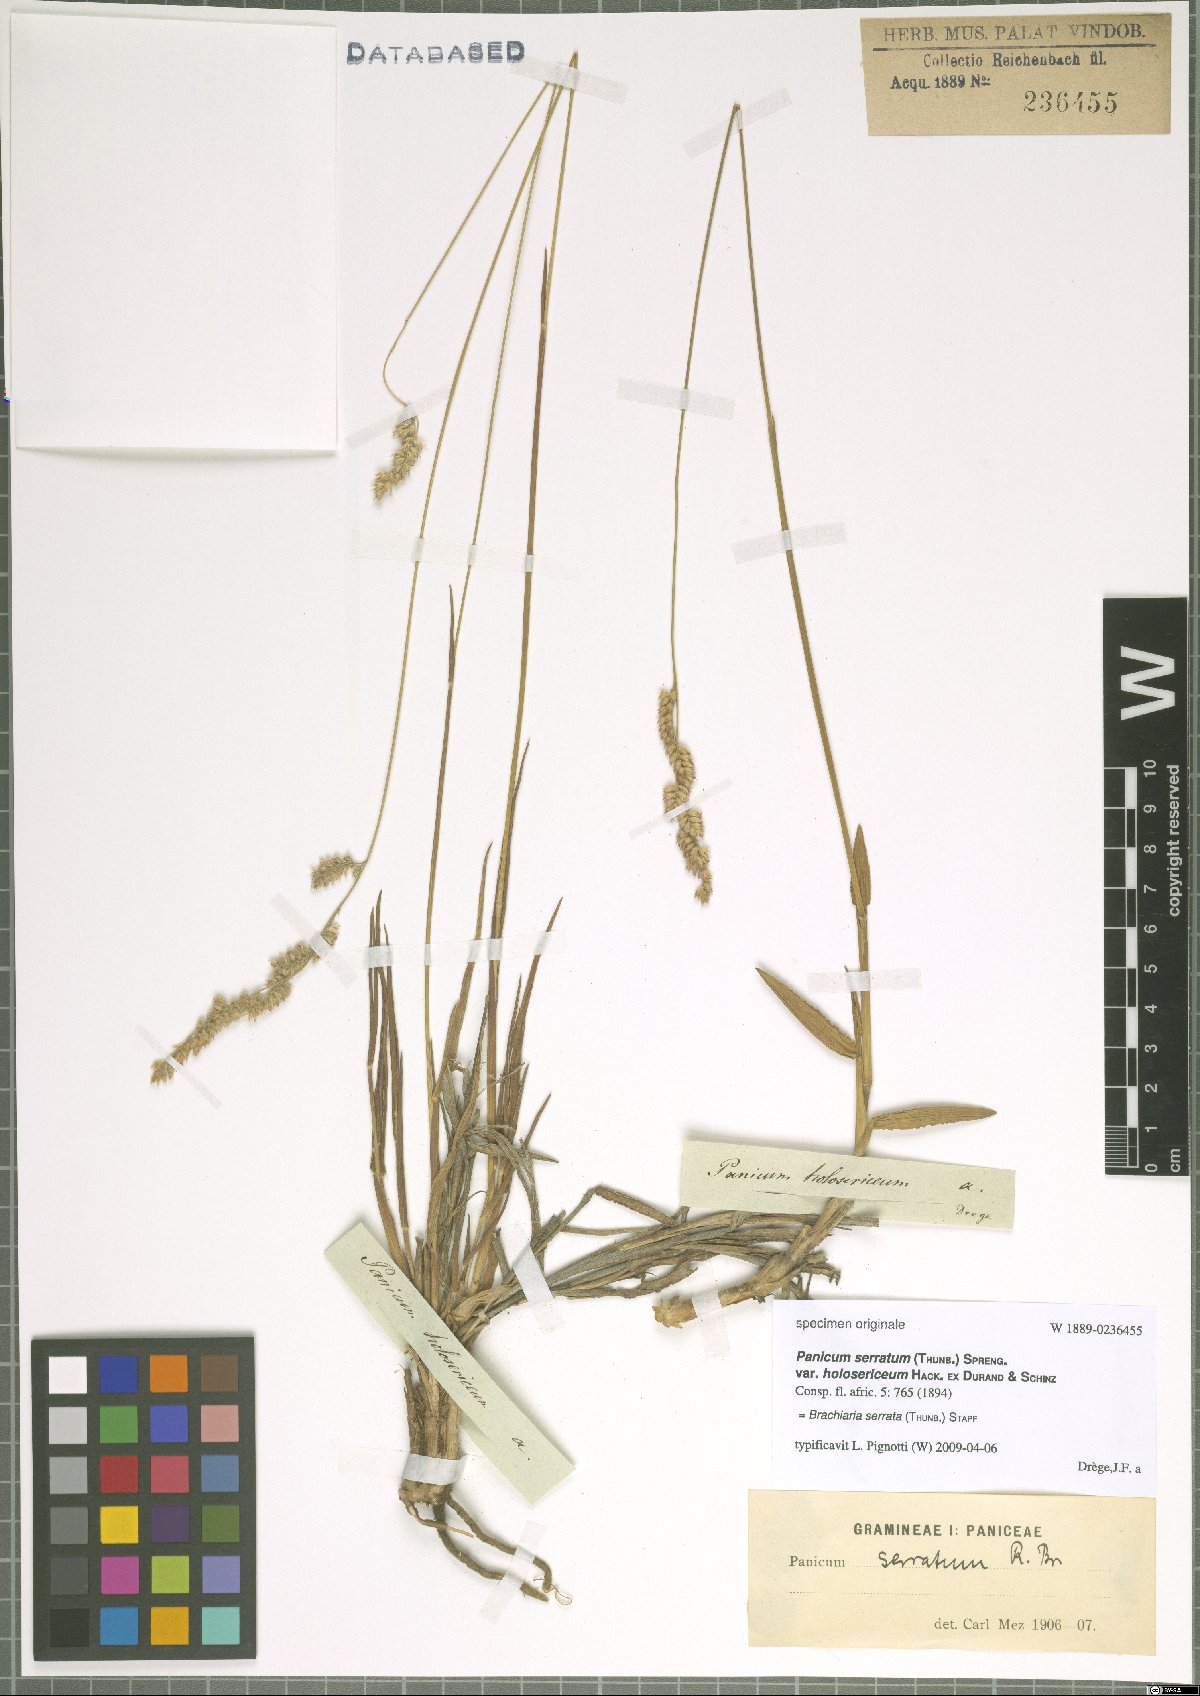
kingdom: Plantae
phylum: Tracheophyta
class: Liliopsida
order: Poales
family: Poaceae
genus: Urochloa
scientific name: Urochloa serrata
